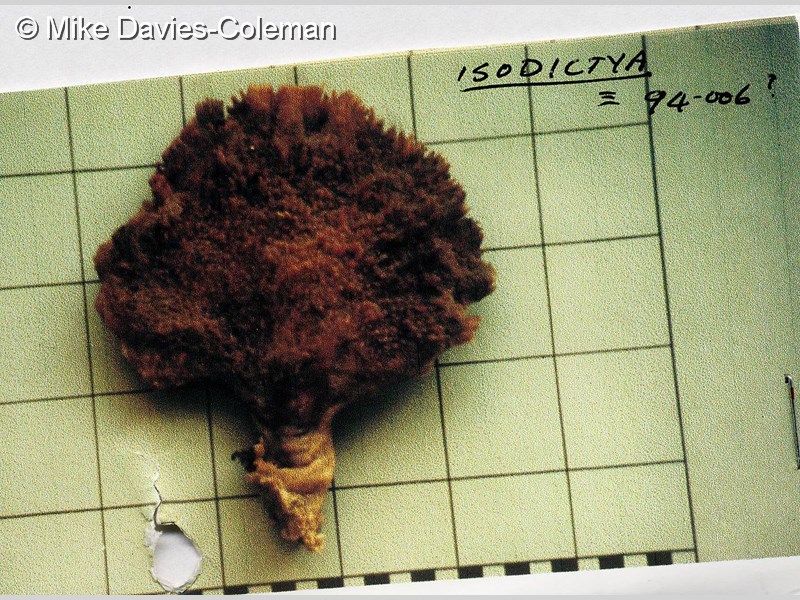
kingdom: Animalia
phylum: Porifera
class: Demospongiae
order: Poecilosclerida
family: Isodictyidae
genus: Isodictya
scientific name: Isodictya compressa
